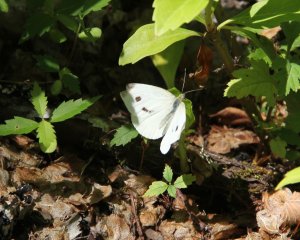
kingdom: Animalia
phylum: Arthropoda
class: Insecta
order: Lepidoptera
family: Pieridae
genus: Pieris
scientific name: Pieris rapae
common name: Cabbage White
